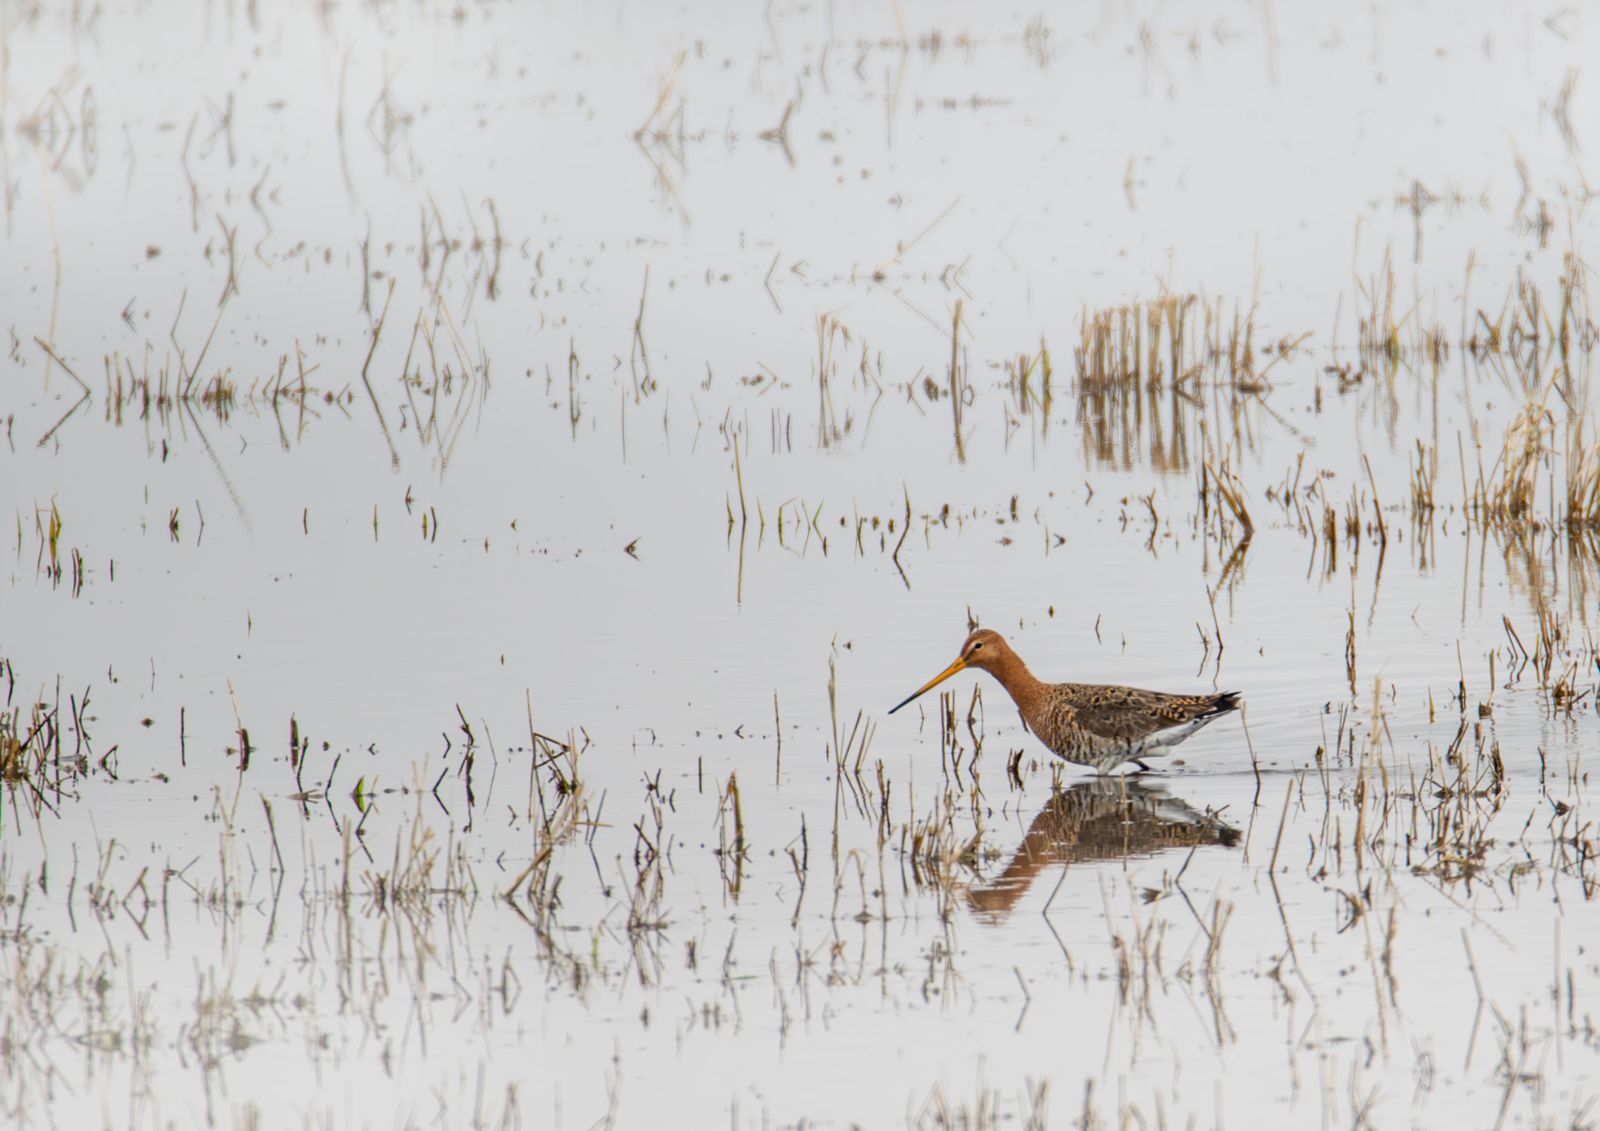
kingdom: Animalia
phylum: Chordata
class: Aves
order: Charadriiformes
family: Scolopacidae
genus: Limosa
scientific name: Limosa limosa
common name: Black-tailed godwit
